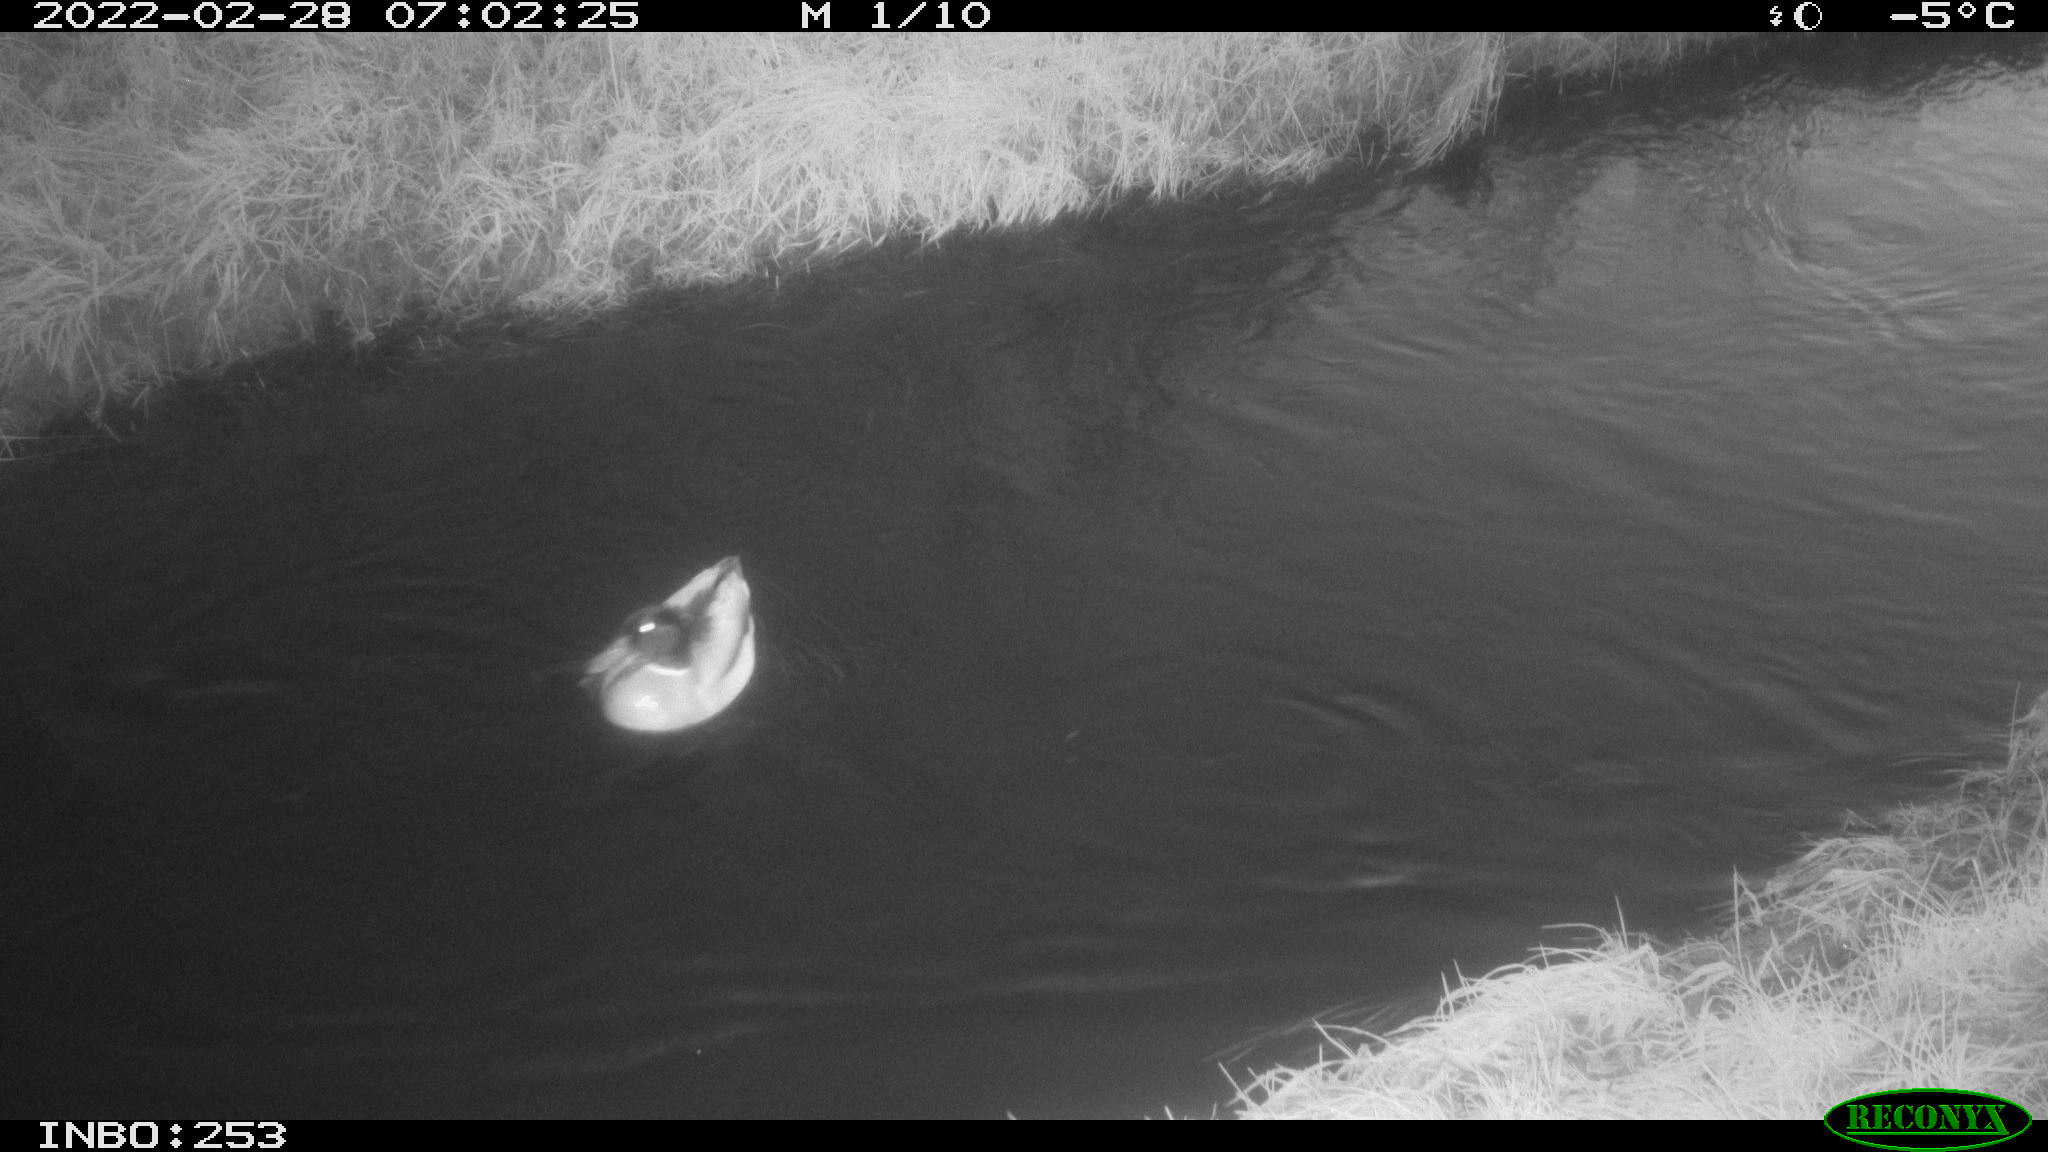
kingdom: Animalia
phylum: Chordata
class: Aves
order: Anseriformes
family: Anatidae
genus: Anas
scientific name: Anas platyrhynchos
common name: Mallard
